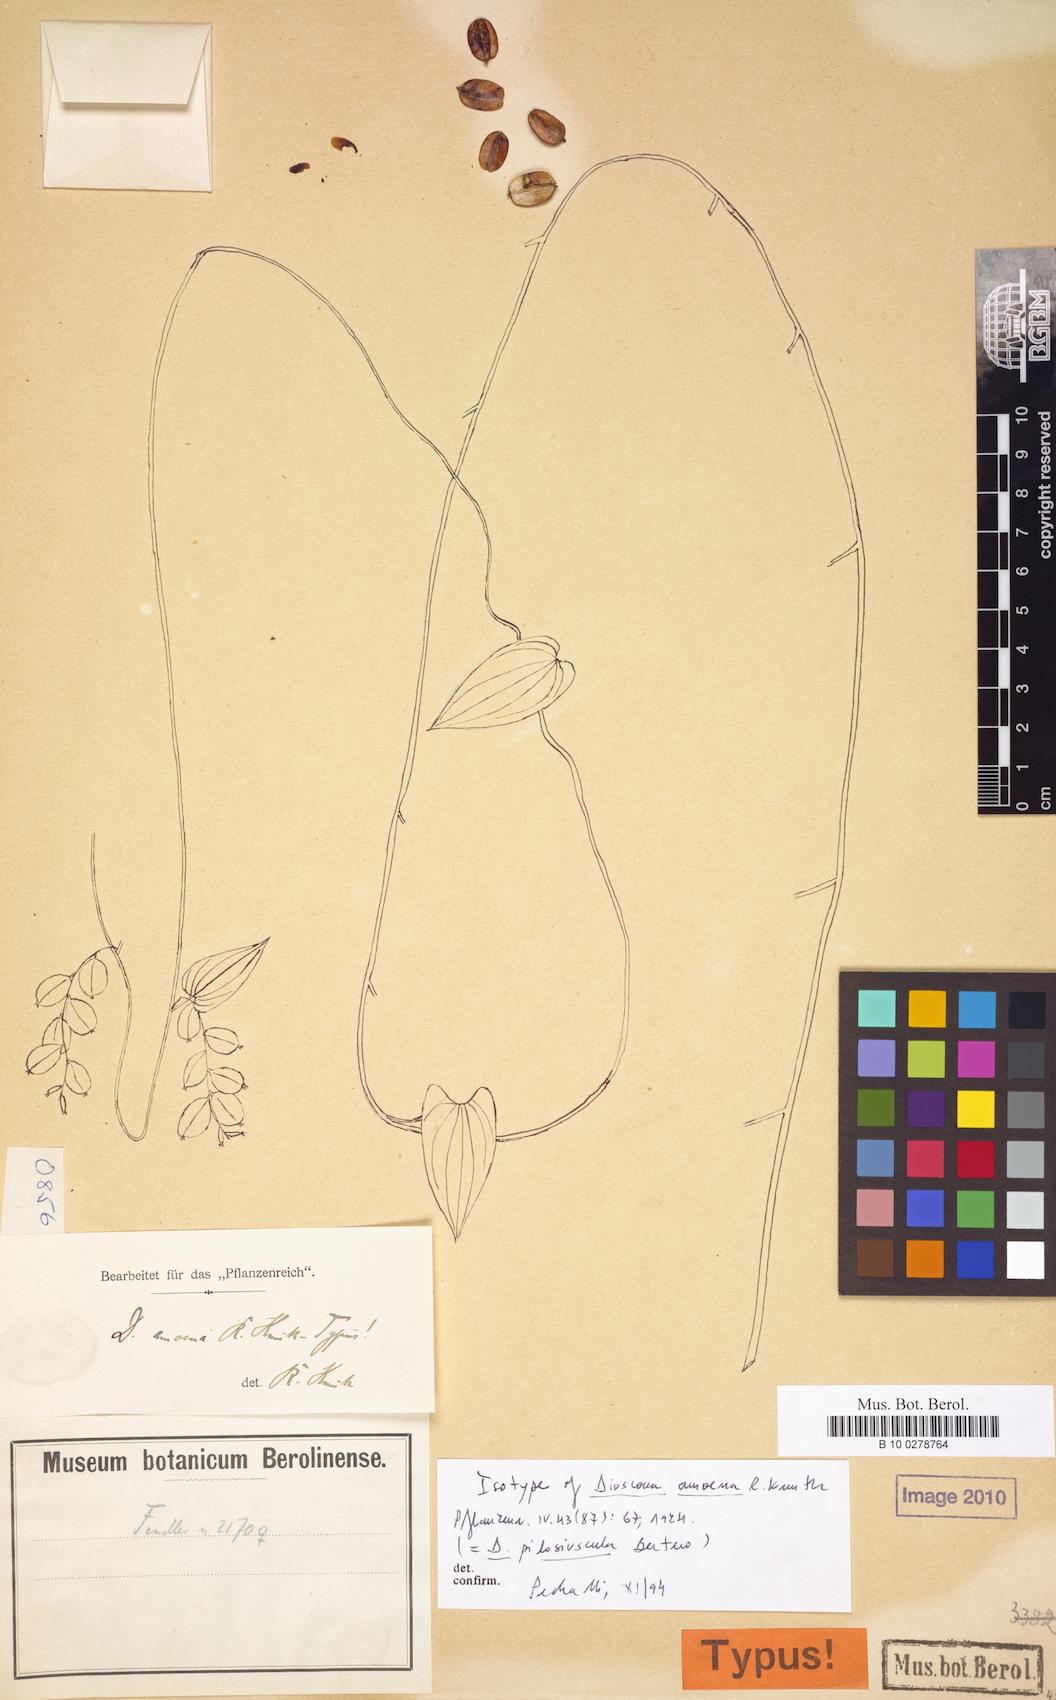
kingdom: Plantae
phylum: Tracheophyta
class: Liliopsida
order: Dioscoreales
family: Dioscoreaceae
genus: Dioscorea
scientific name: Dioscorea amoena
